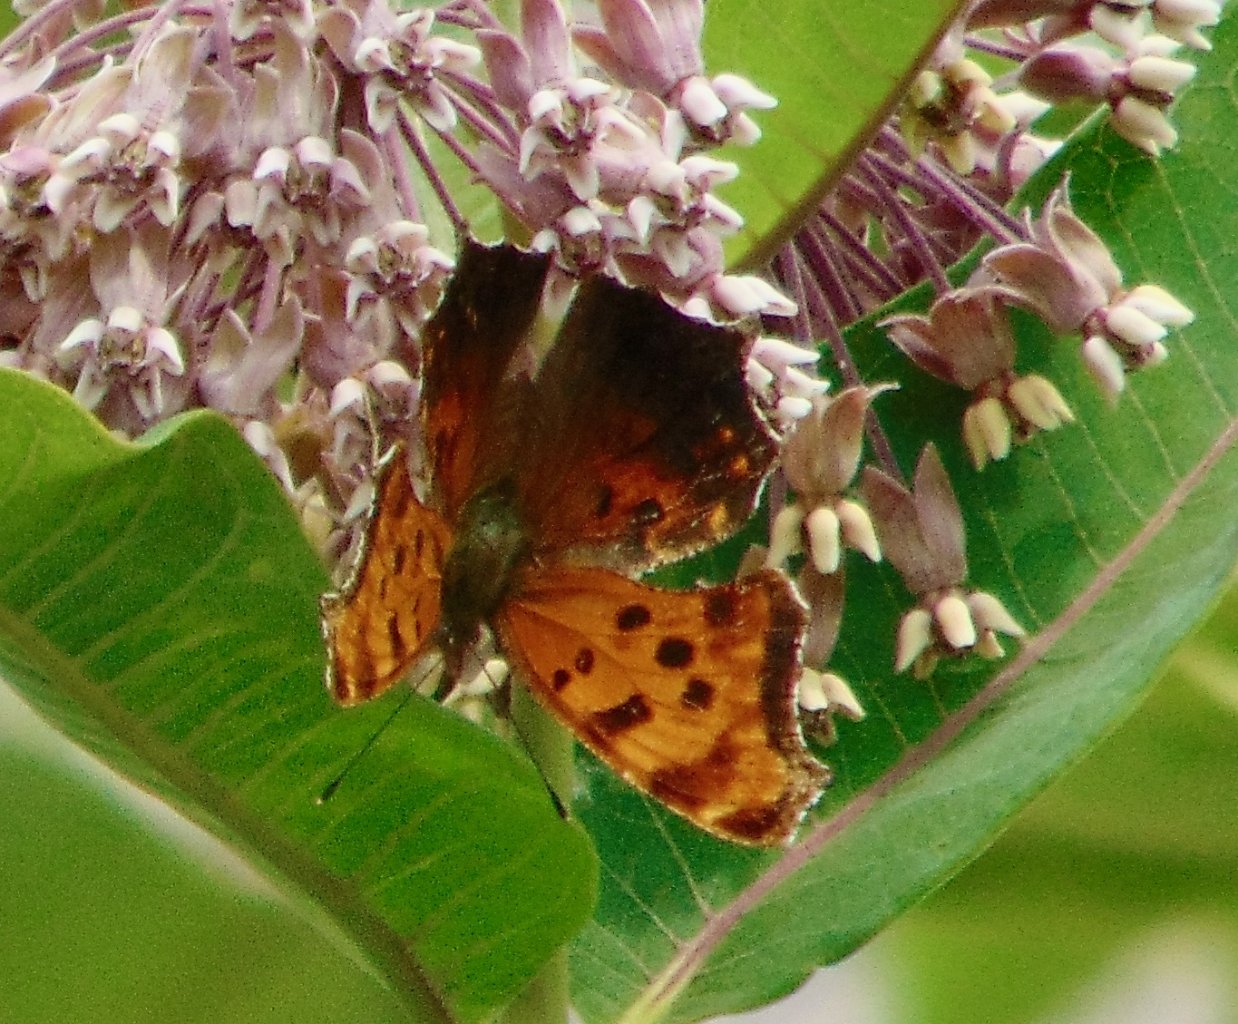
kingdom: Animalia
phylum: Arthropoda
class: Insecta
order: Lepidoptera
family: Nymphalidae
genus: Polygonia
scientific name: Polygonia comma
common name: Eastern Comma
